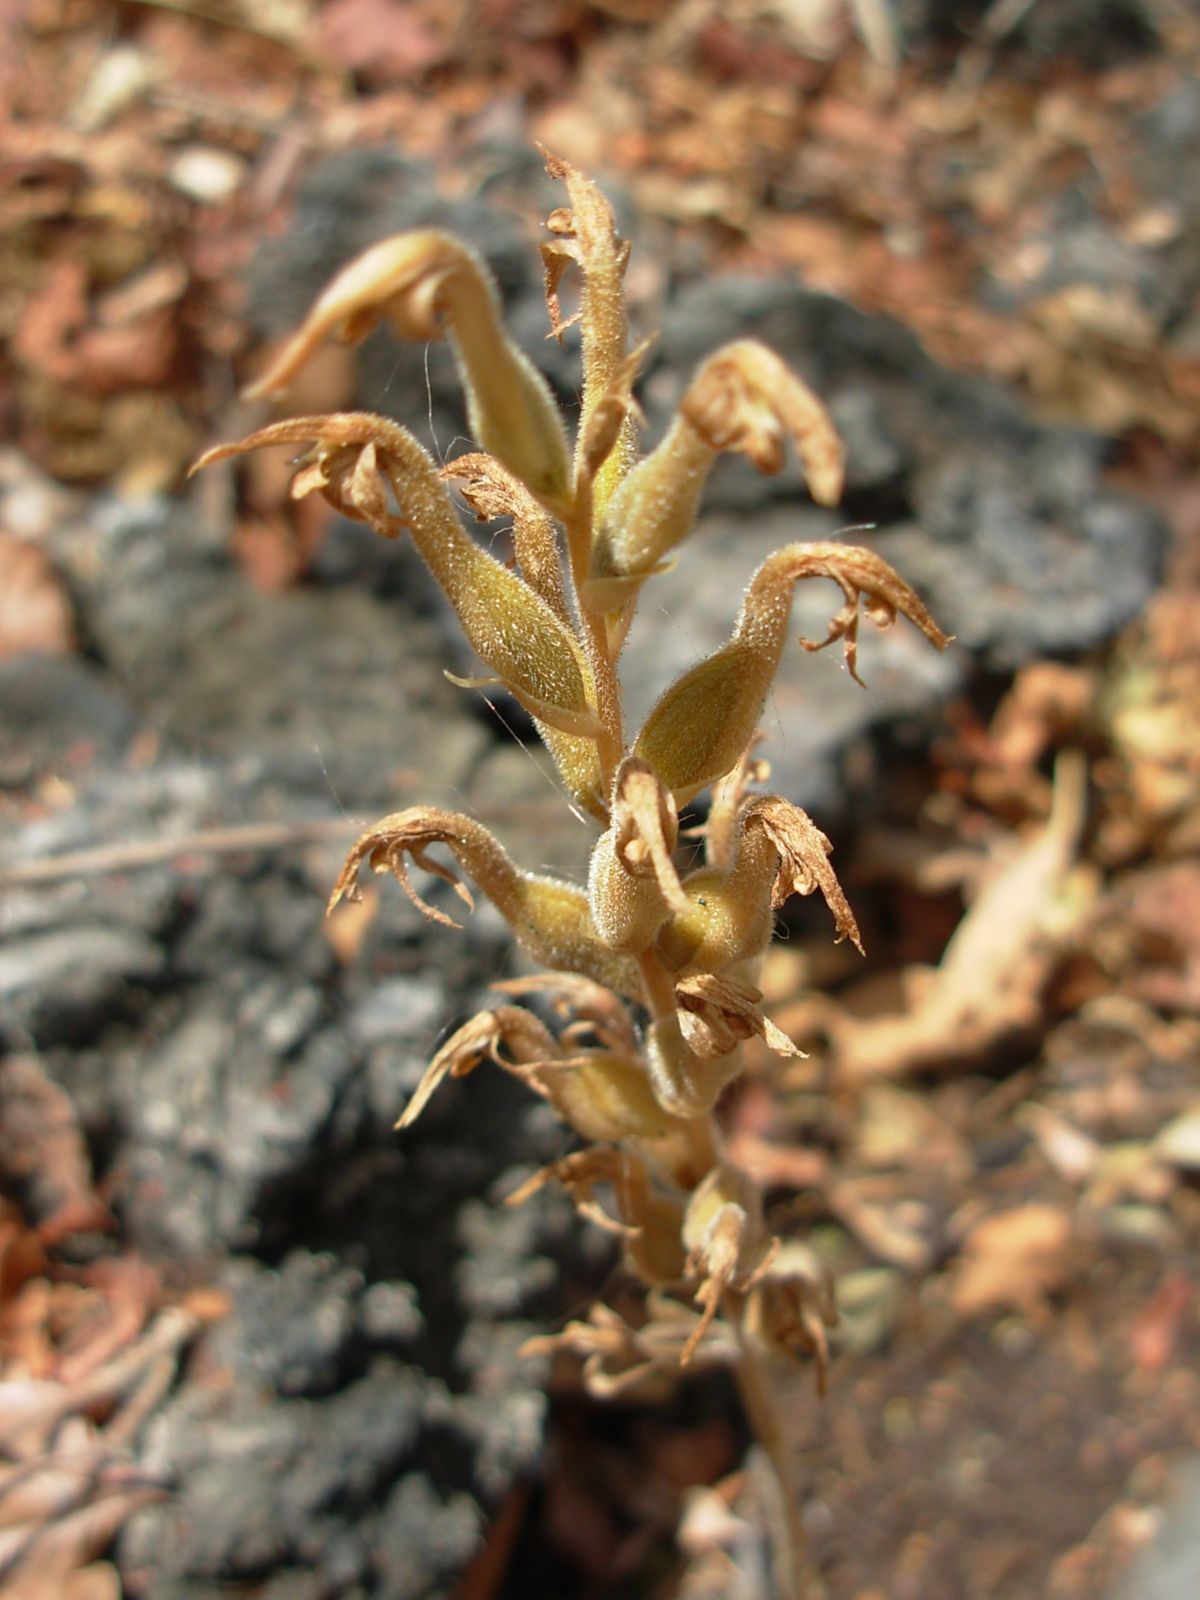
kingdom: Plantae
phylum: Tracheophyta
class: Liliopsida
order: Asparagales
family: Orchidaceae
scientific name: Orchidaceae
